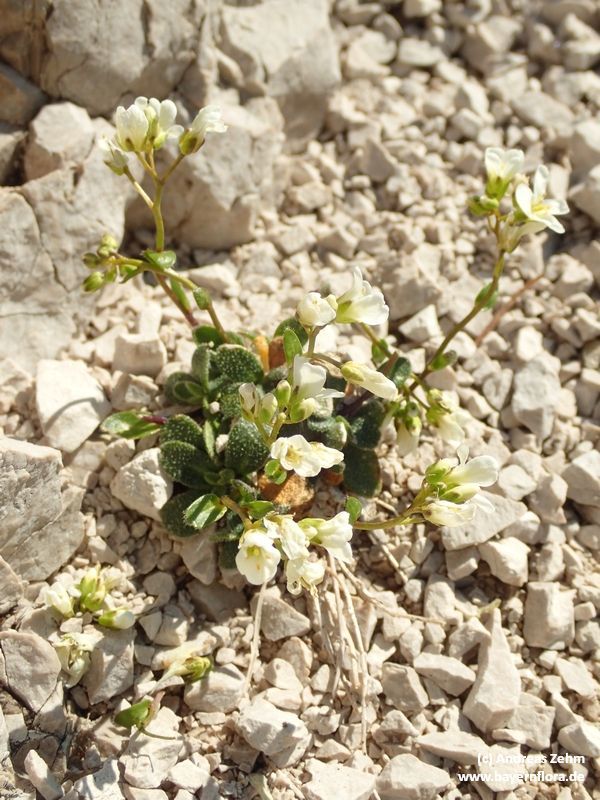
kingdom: Plantae
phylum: Tracheophyta
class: Magnoliopsida
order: Brassicales
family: Brassicaceae
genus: Arabis
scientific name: Arabis stellulata
